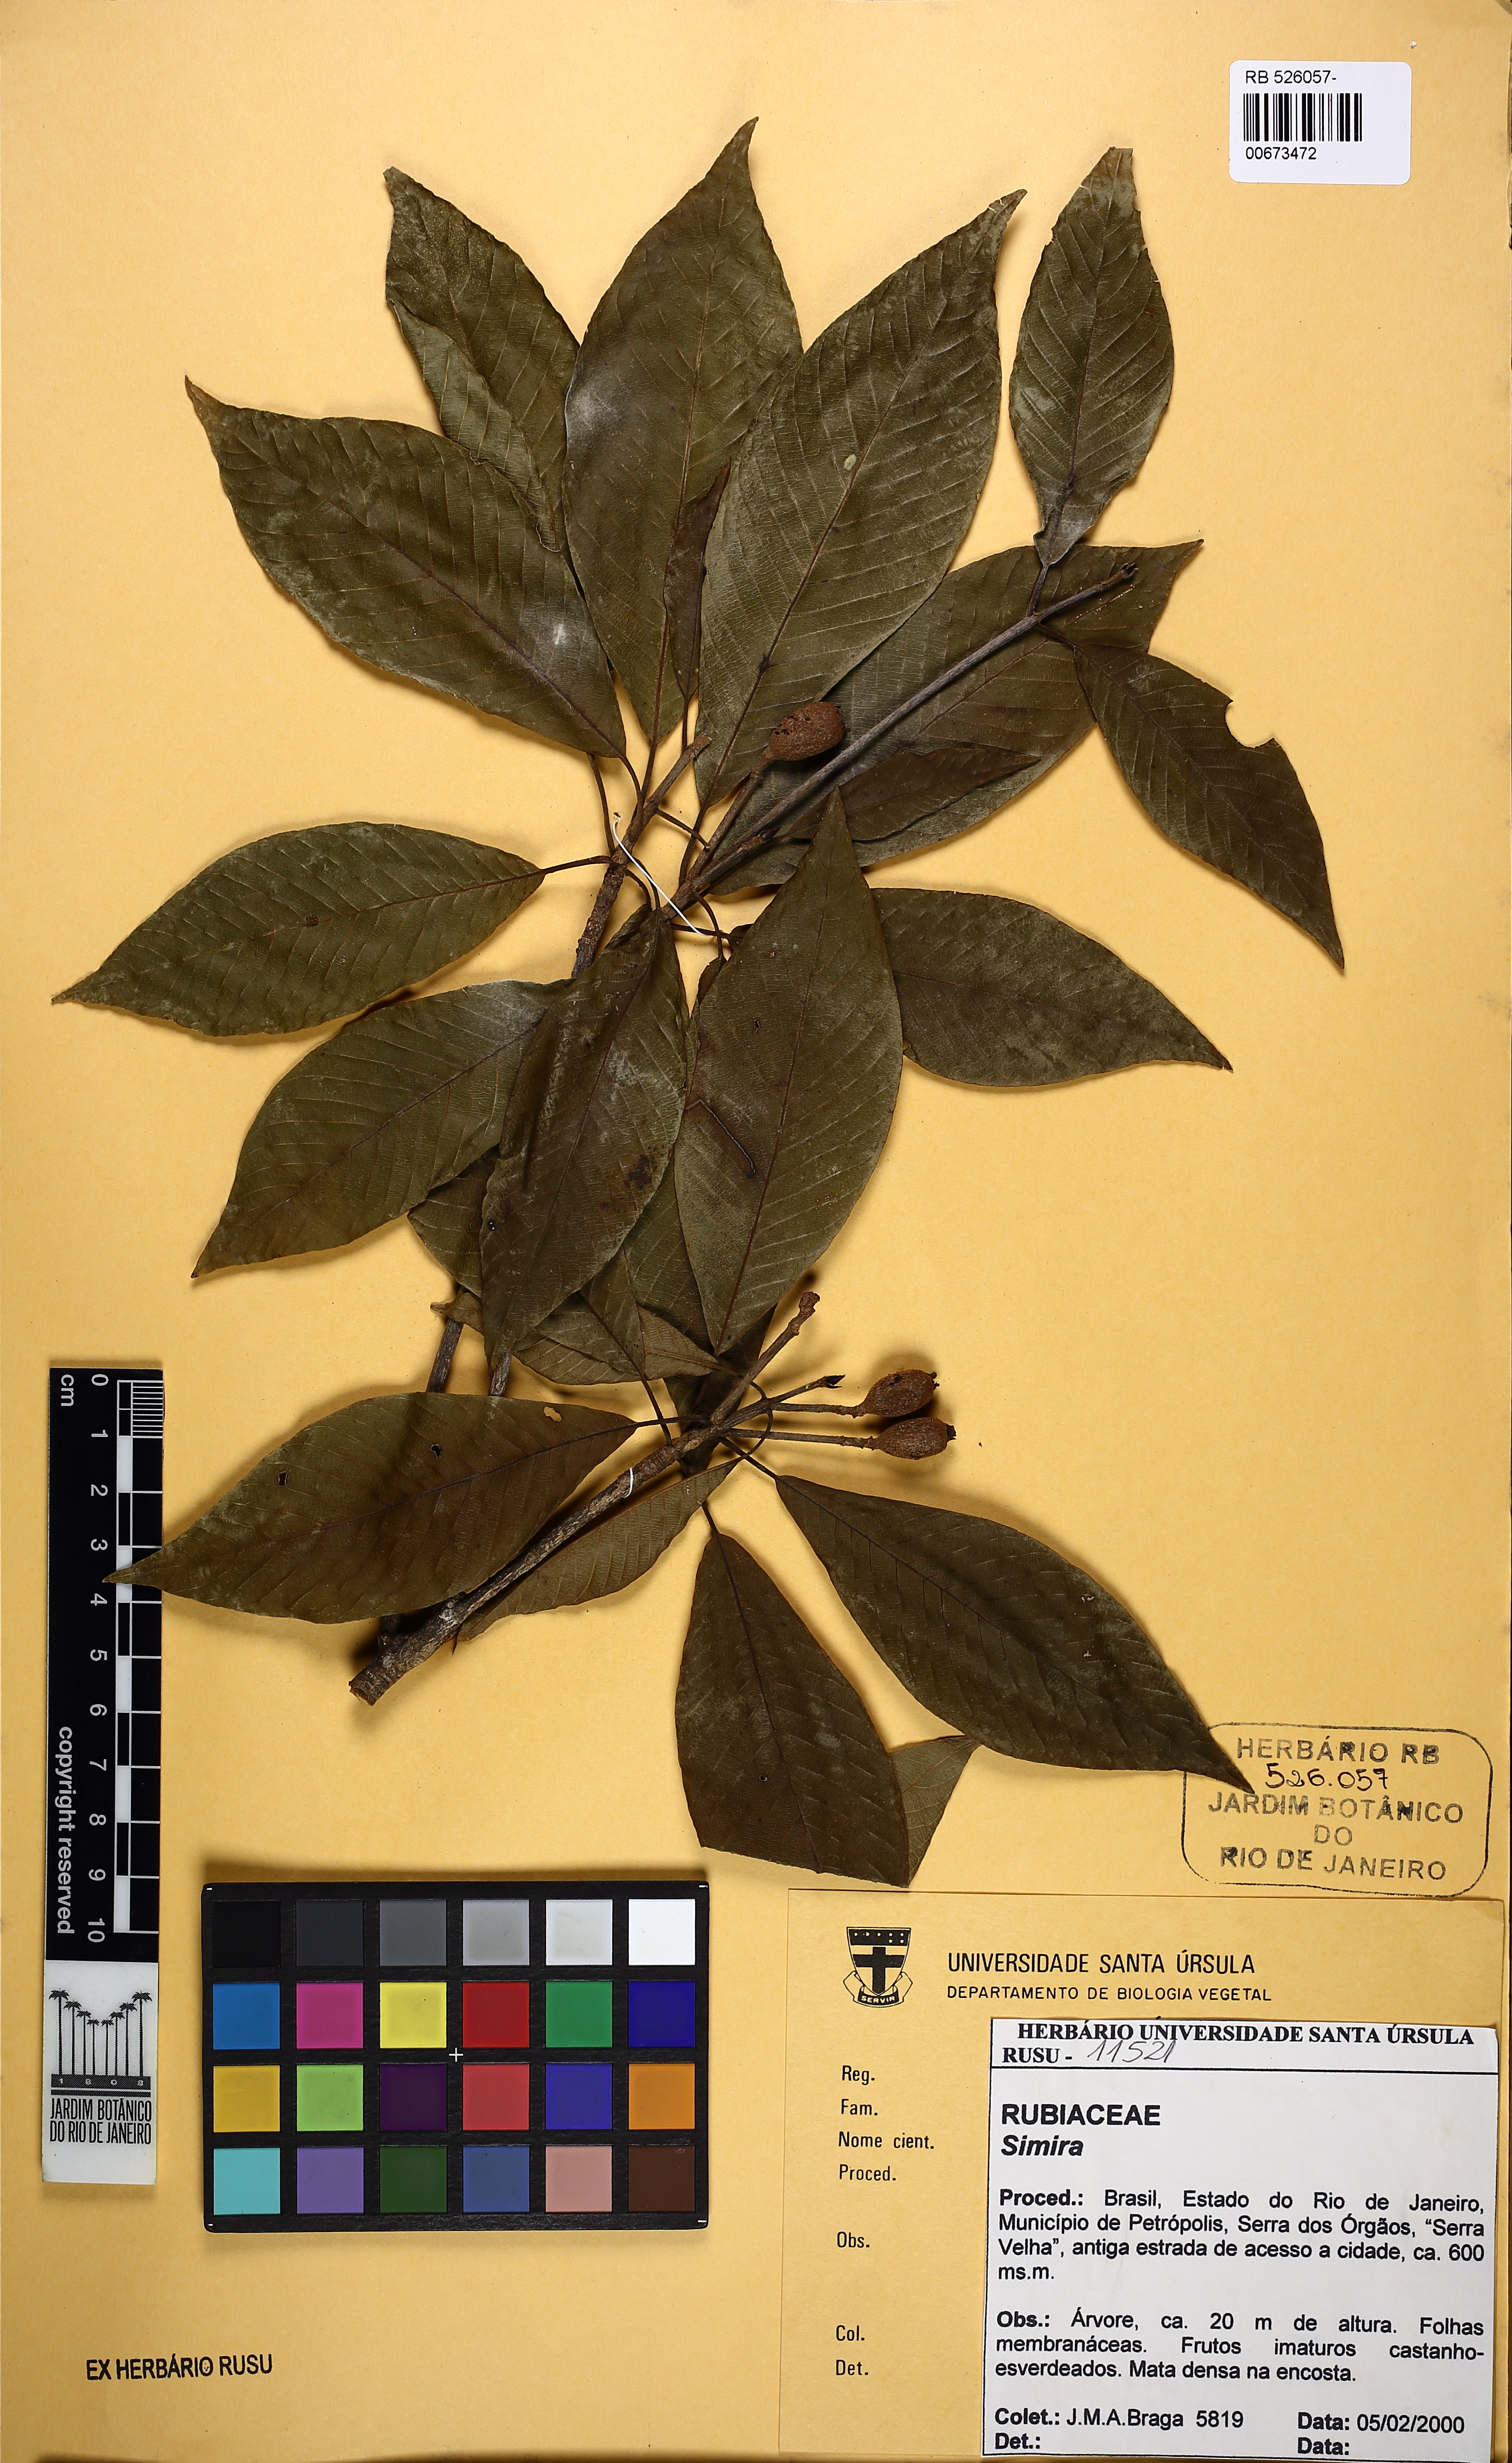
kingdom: Plantae
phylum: Tracheophyta
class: Magnoliopsida
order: Gentianales
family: Rubiaceae
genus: Simira
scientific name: Simira pikia
